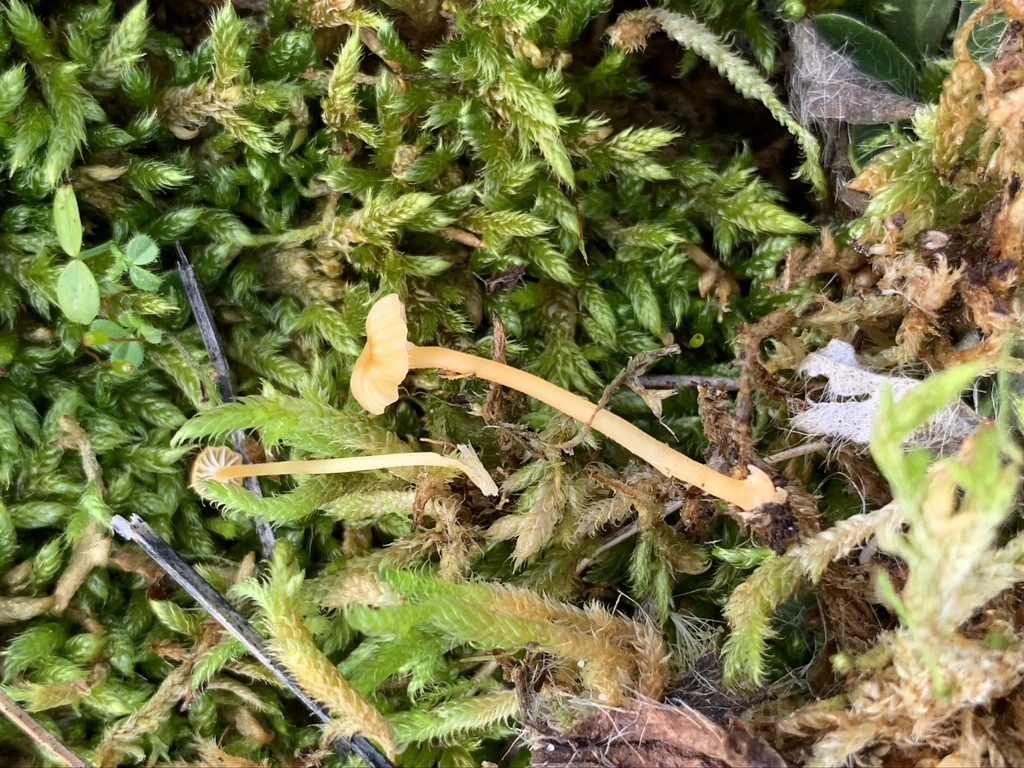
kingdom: Fungi
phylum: Basidiomycota
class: Agaricomycetes
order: Hymenochaetales
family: Rickenellaceae
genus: Rickenella
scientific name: Rickenella fibula
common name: orange mosnavlehat
